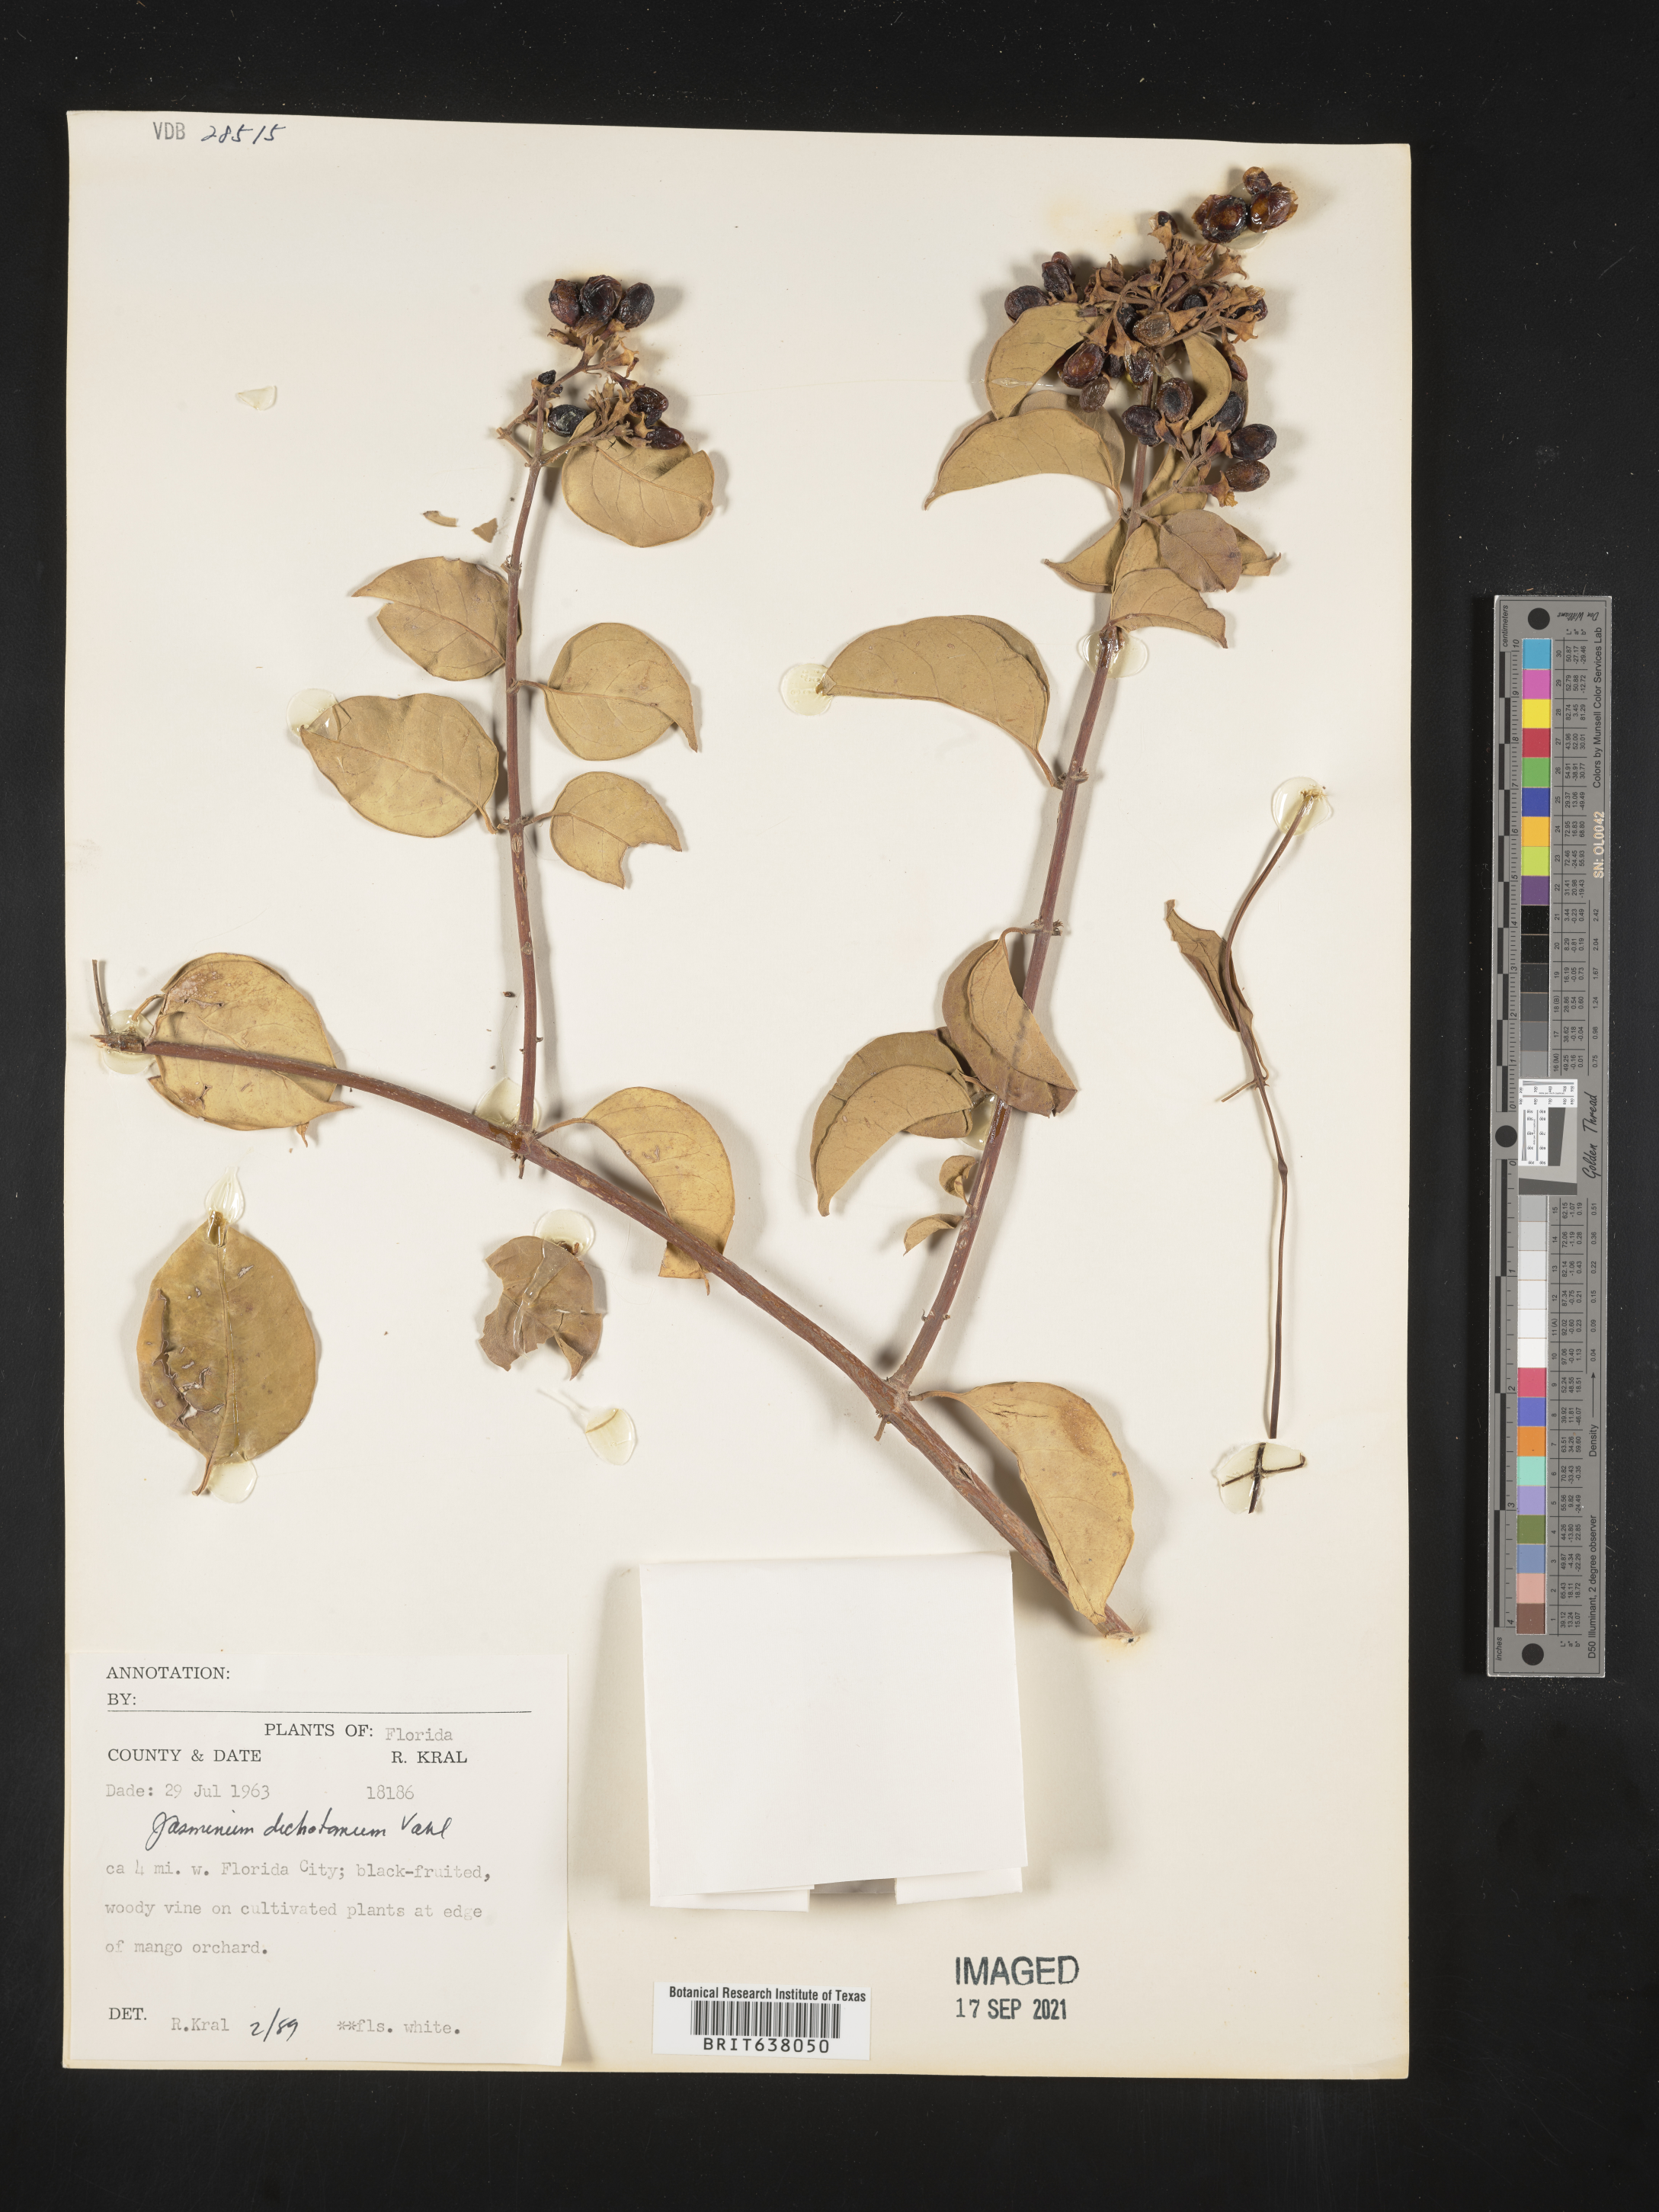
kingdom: Plantae
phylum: Tracheophyta
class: Magnoliopsida
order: Lamiales
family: Oleaceae
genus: Jasminum
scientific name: Jasminum
